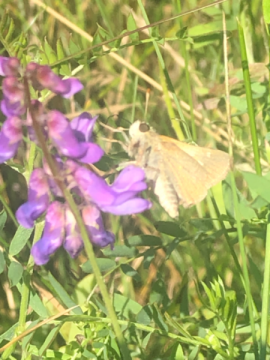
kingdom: Animalia
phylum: Arthropoda
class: Insecta
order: Lepidoptera
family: Hesperiidae
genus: Polites
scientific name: Polites themistocles
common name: Tawny-edged Skipper
